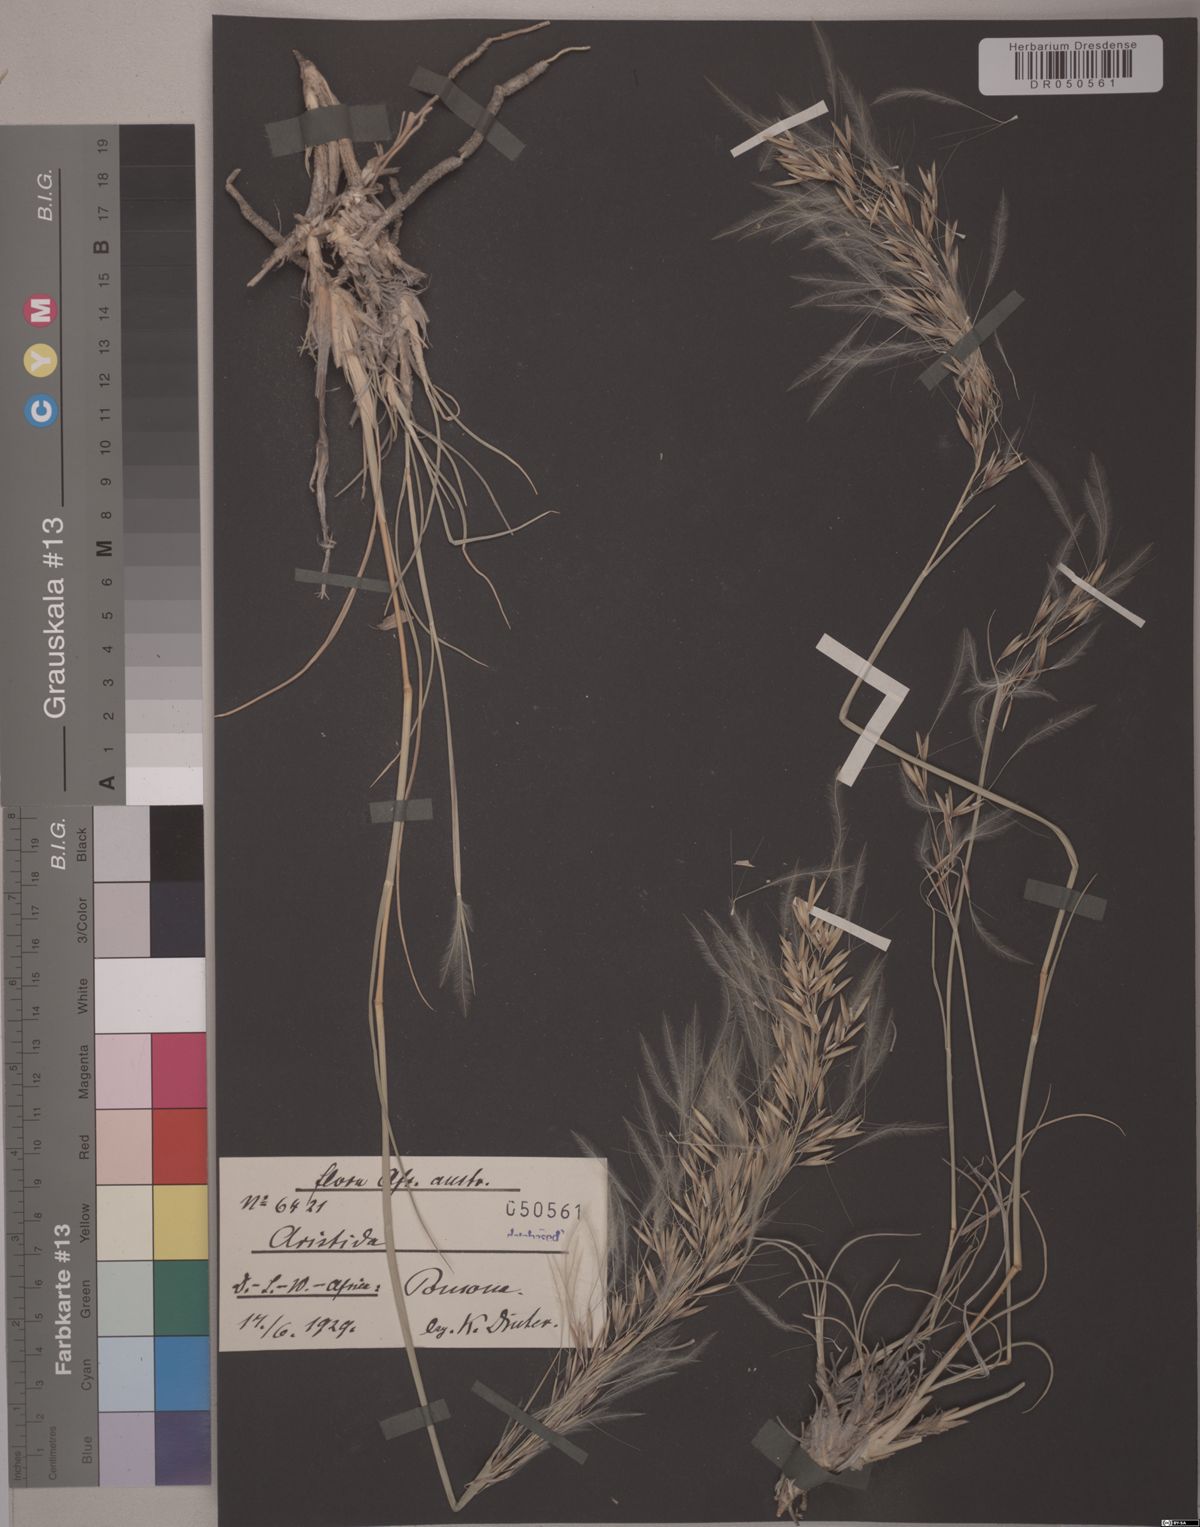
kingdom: Plantae
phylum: Tracheophyta
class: Liliopsida
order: Poales
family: Poaceae
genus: Stipagrostis
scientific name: Stipagrostis schaeferi
